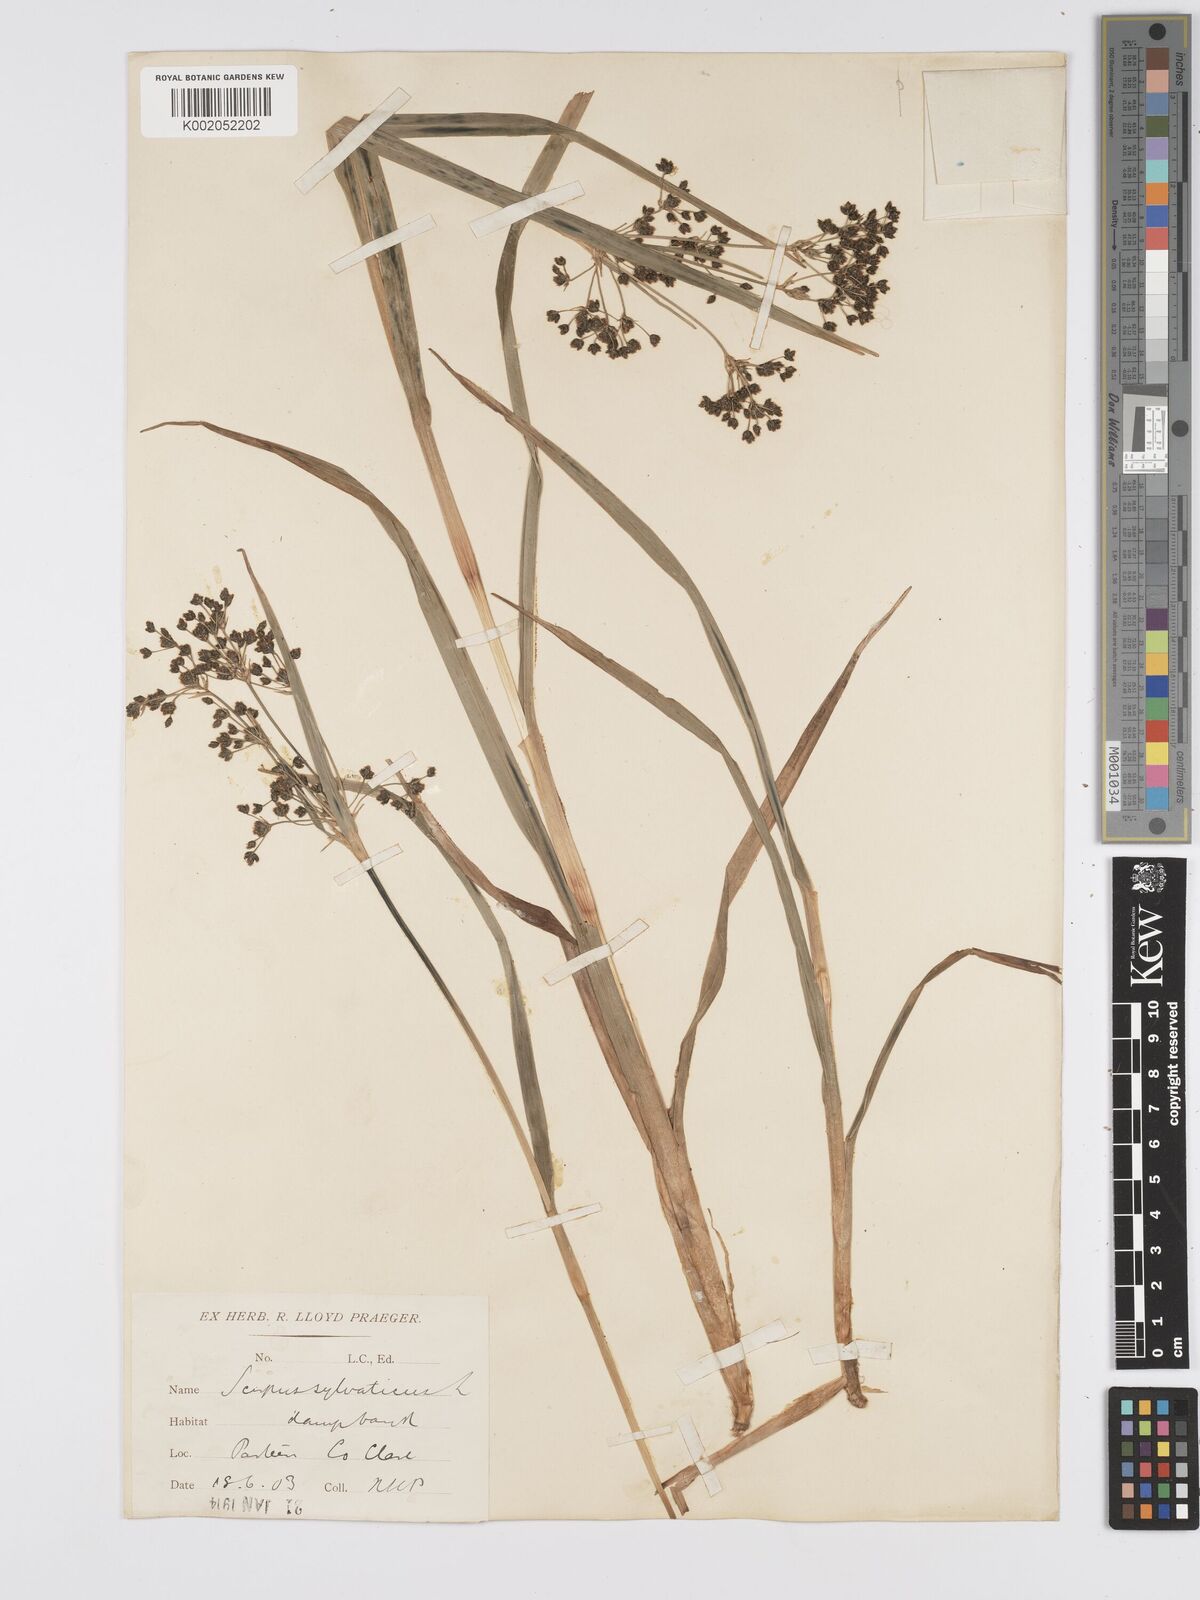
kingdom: Plantae
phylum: Tracheophyta
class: Liliopsida
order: Poales
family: Cyperaceae
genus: Scirpus
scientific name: Scirpus sylvaticus
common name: Wood club-rush
